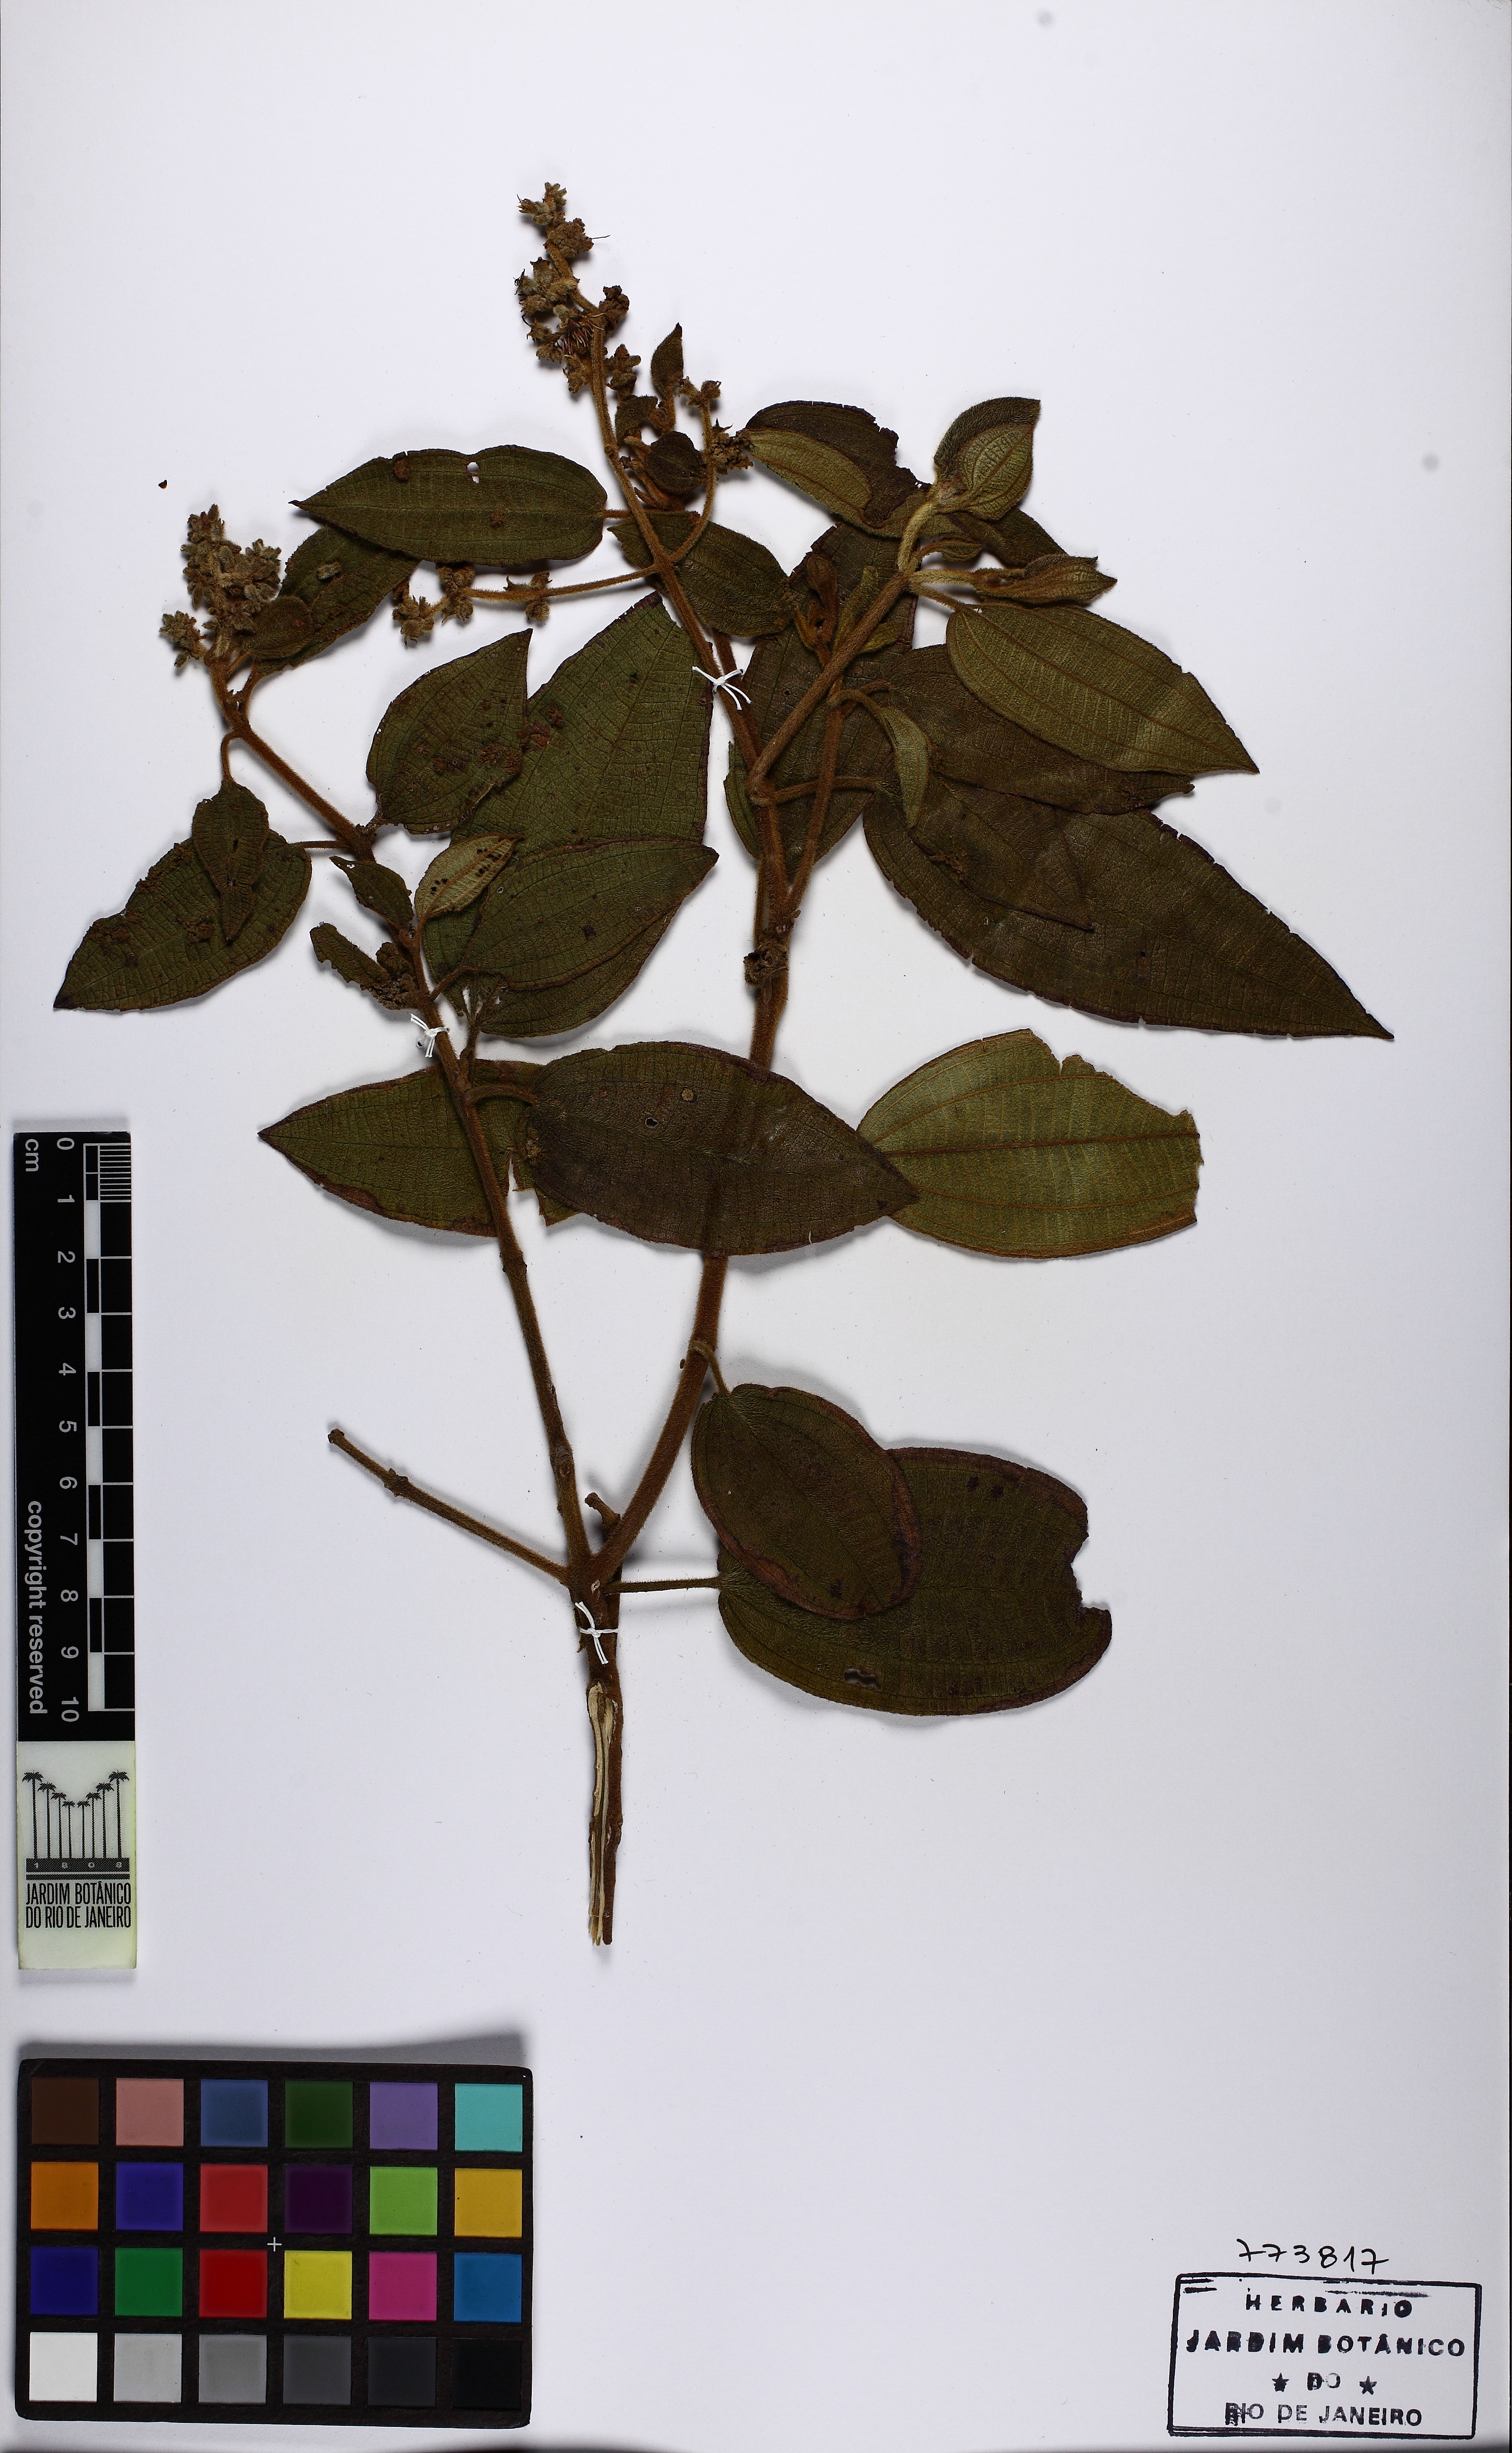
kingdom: Plantae
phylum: Tracheophyta
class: Magnoliopsida
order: Myrtales
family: Melastomataceae
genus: Miconia
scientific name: Miconia auricoma
